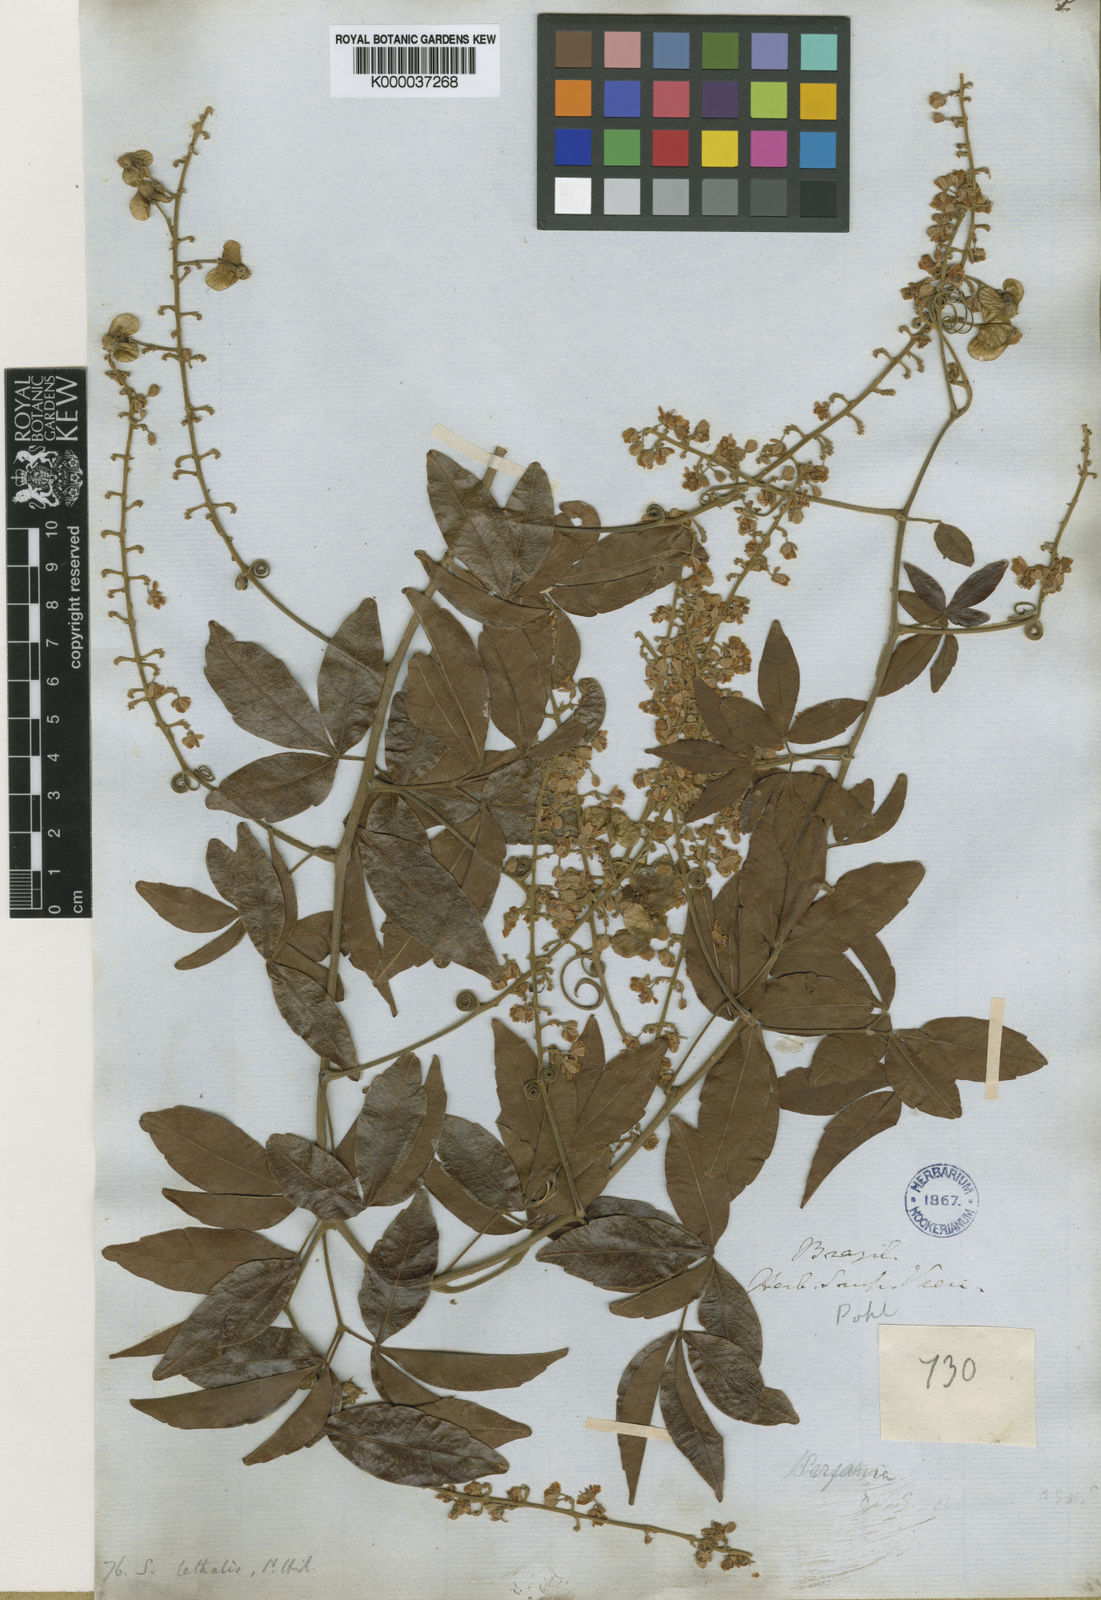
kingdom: Plantae
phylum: Tracheophyta
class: Magnoliopsida
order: Sapindales
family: Sapindaceae
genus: Serjania
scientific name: Serjania lethalis
